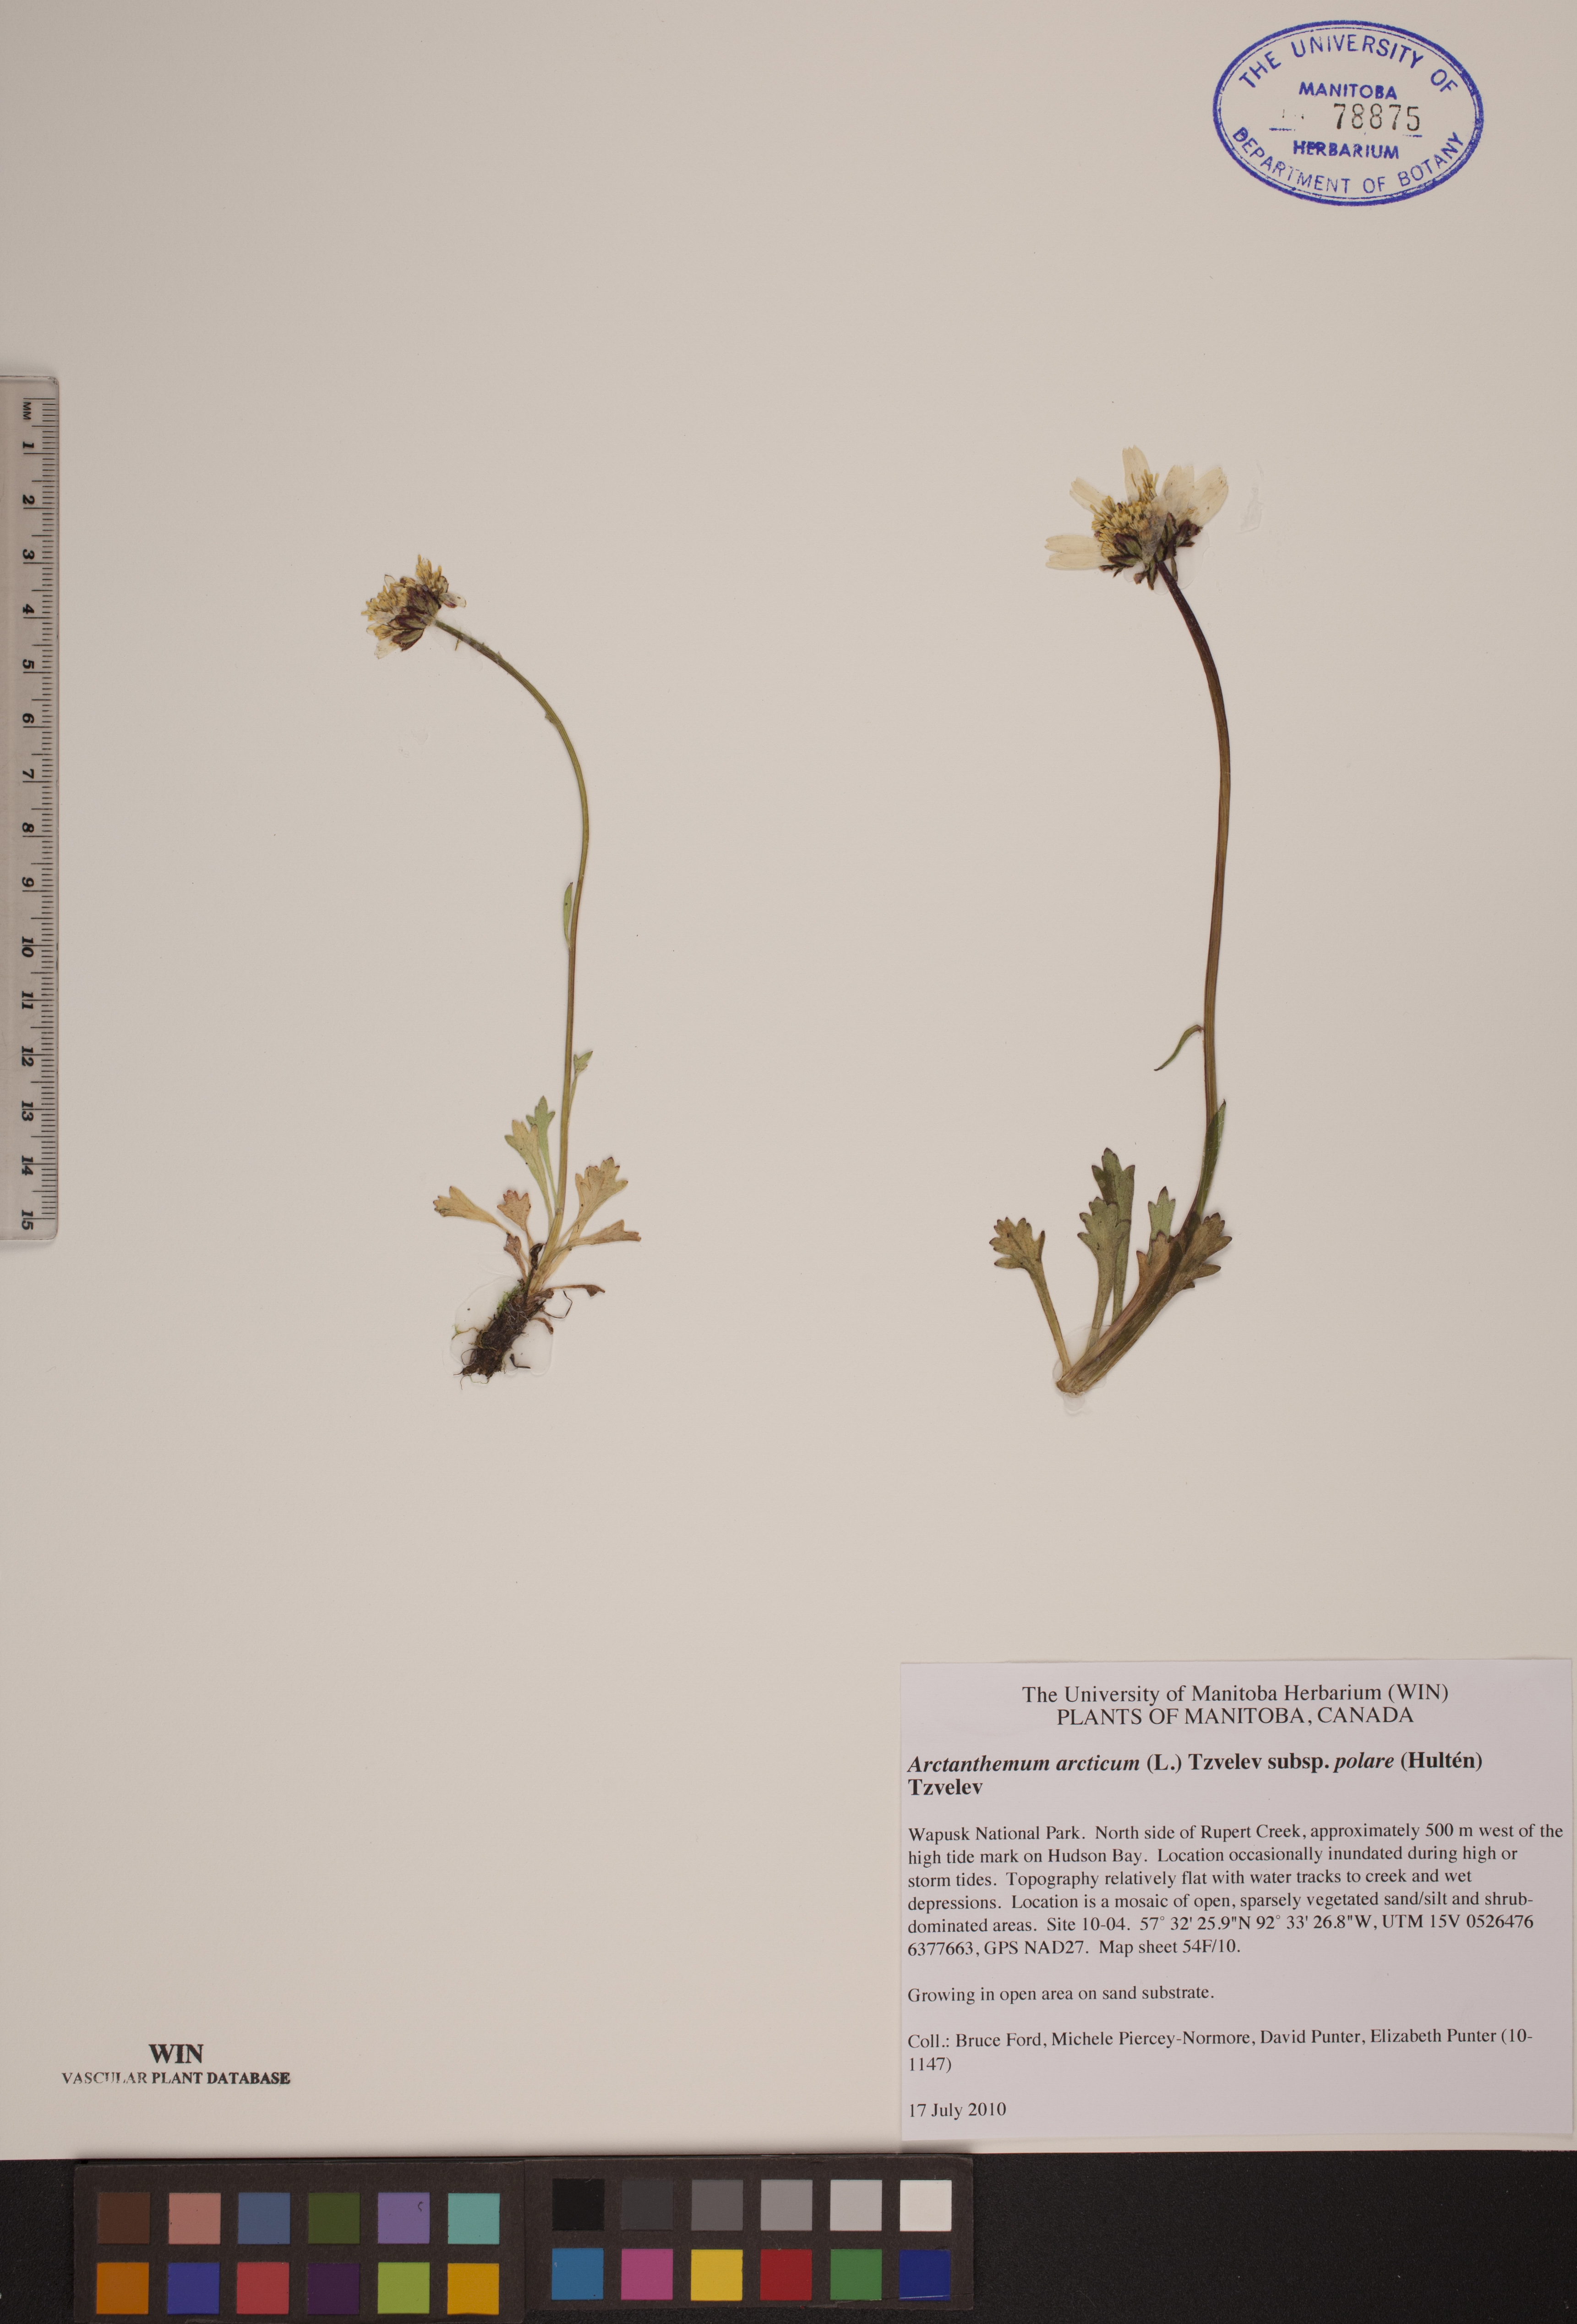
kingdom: Plantae
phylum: Tracheophyta
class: Magnoliopsida
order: Asterales
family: Asteraceae
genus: Arctanthemum
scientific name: Arctanthemum arcticum
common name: Arctic daisy
